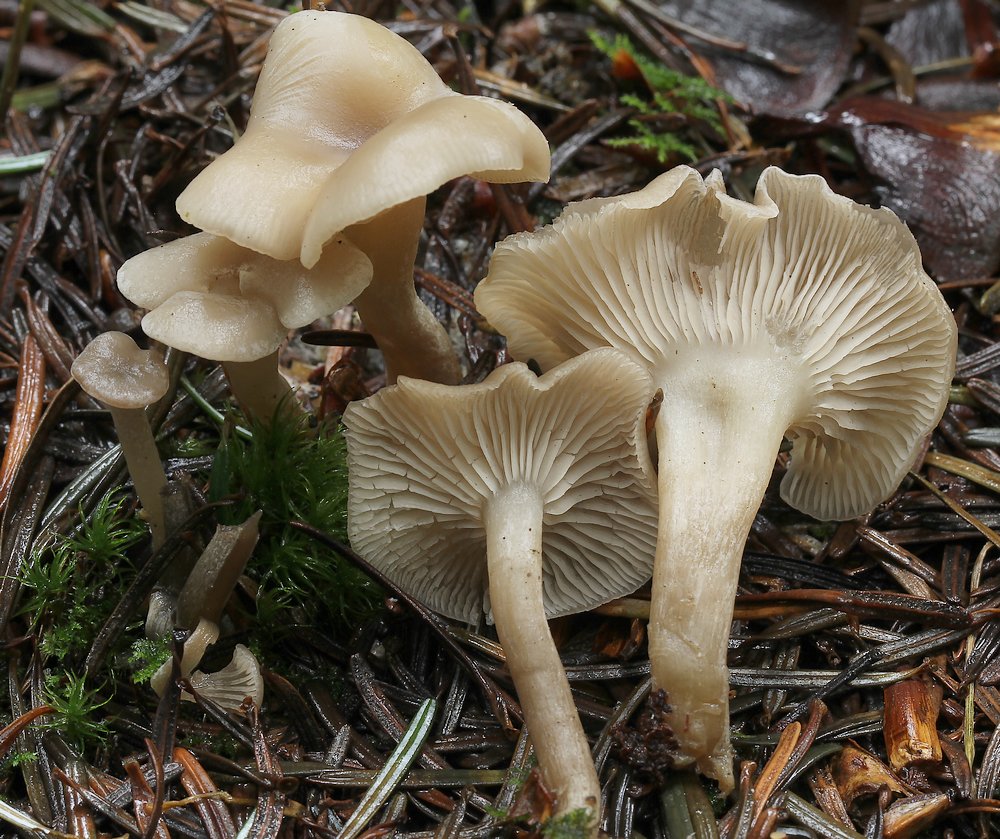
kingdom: Fungi
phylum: Basidiomycota
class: Agaricomycetes
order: Agaricales
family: Tricholomataceae
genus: Clitocybe
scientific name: Clitocybe
